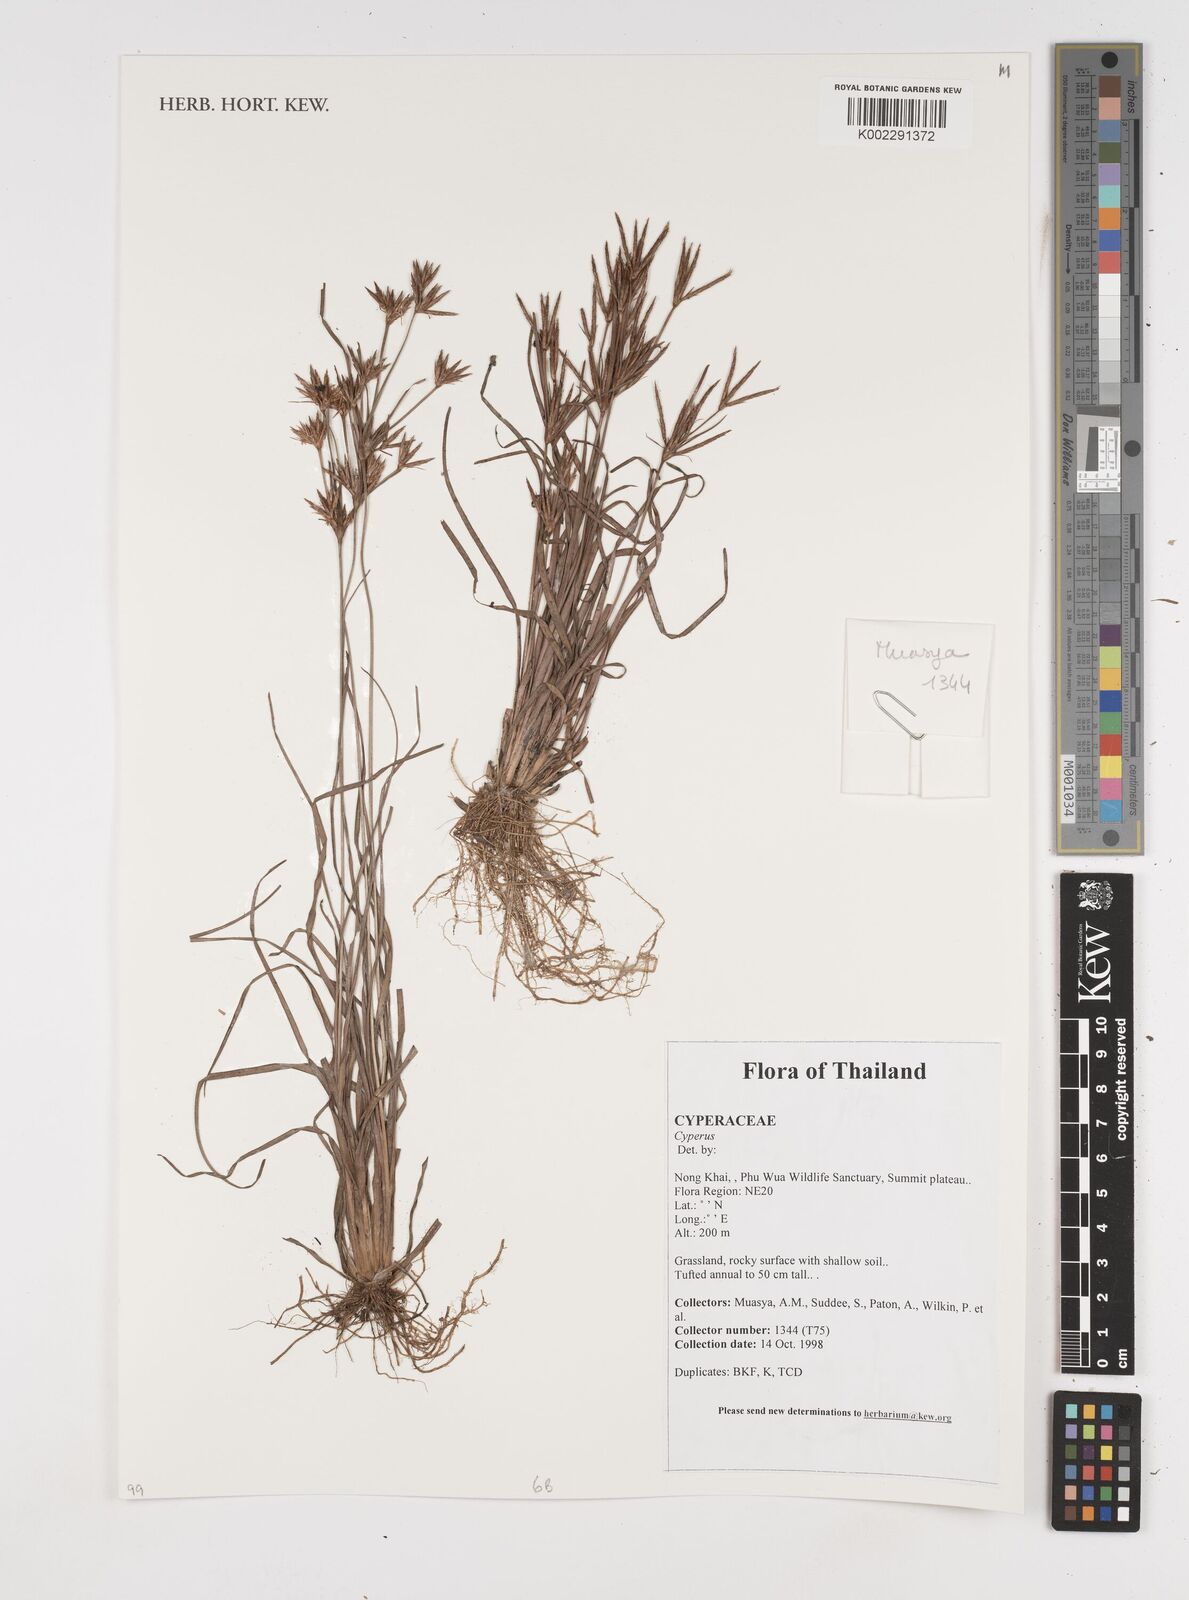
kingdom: Plantae
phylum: Tracheophyta
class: Liliopsida
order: Poales
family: Cyperaceae
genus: Cyperus
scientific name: Cyperus
